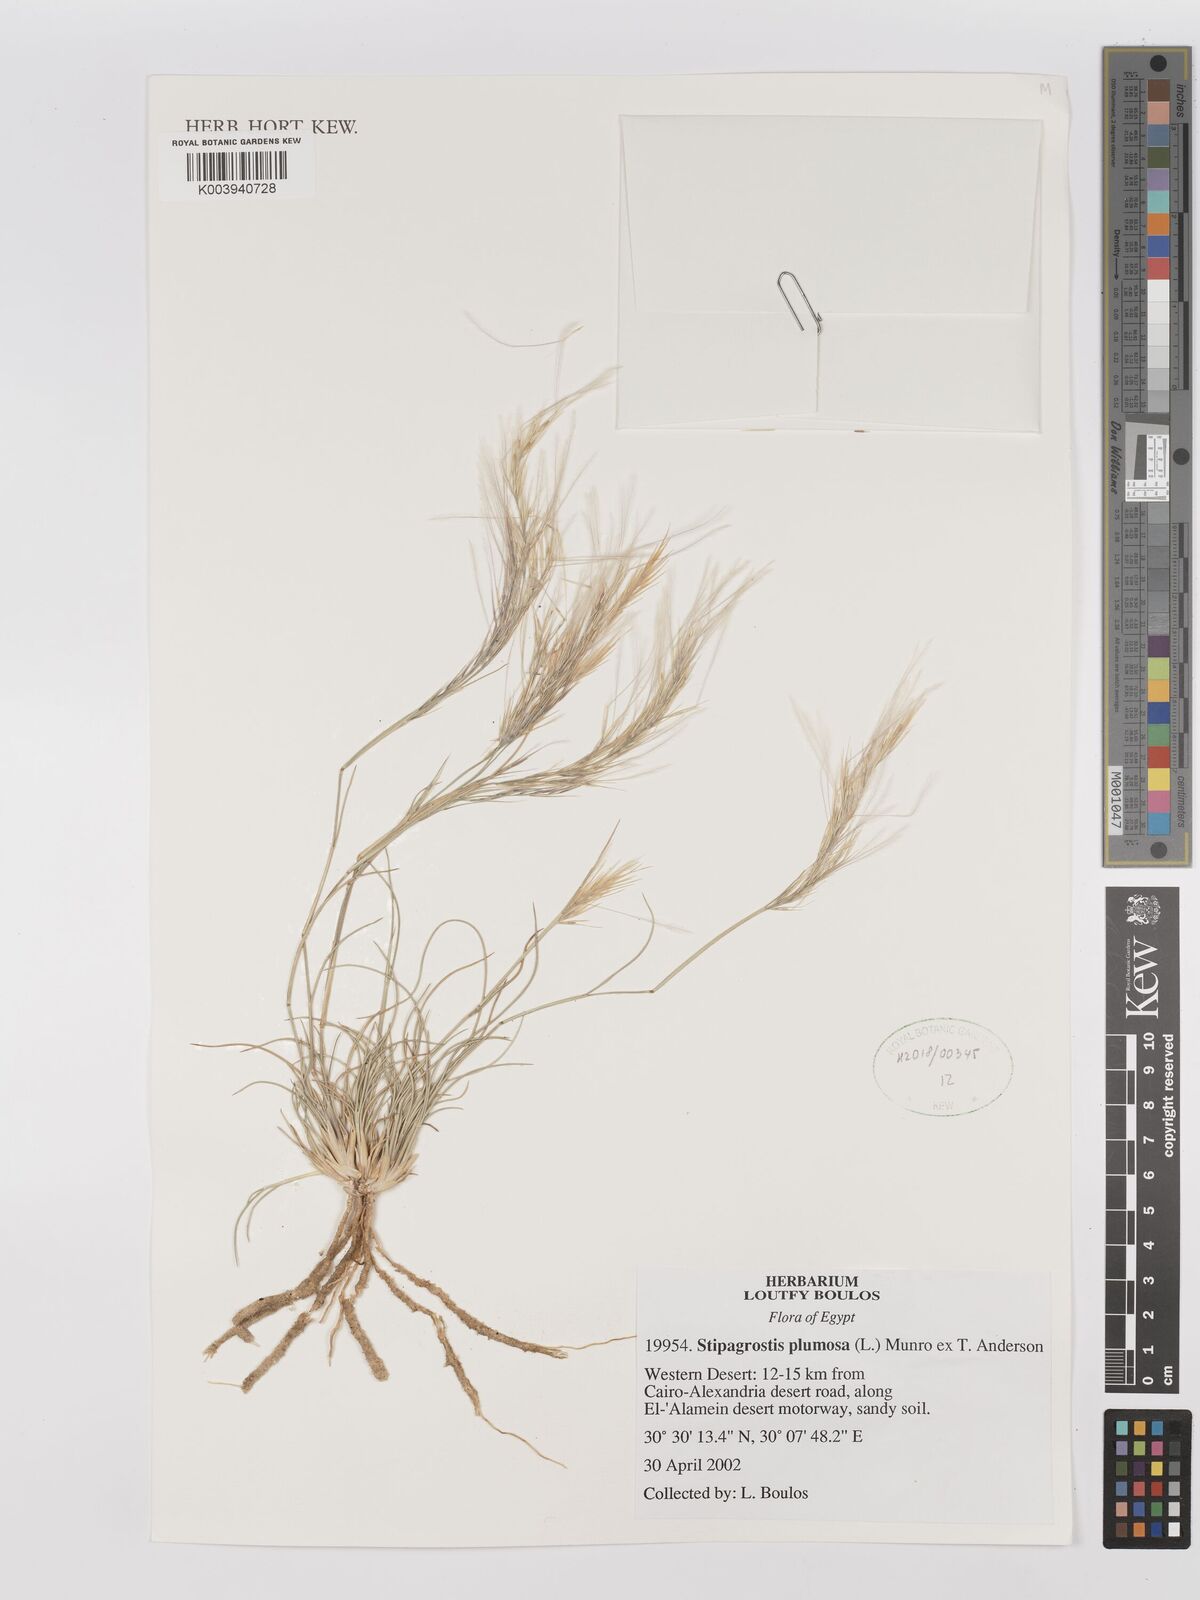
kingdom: Plantae
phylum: Tracheophyta
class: Liliopsida
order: Poales
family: Poaceae
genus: Stipagrostis
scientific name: Stipagrostis plumosa
